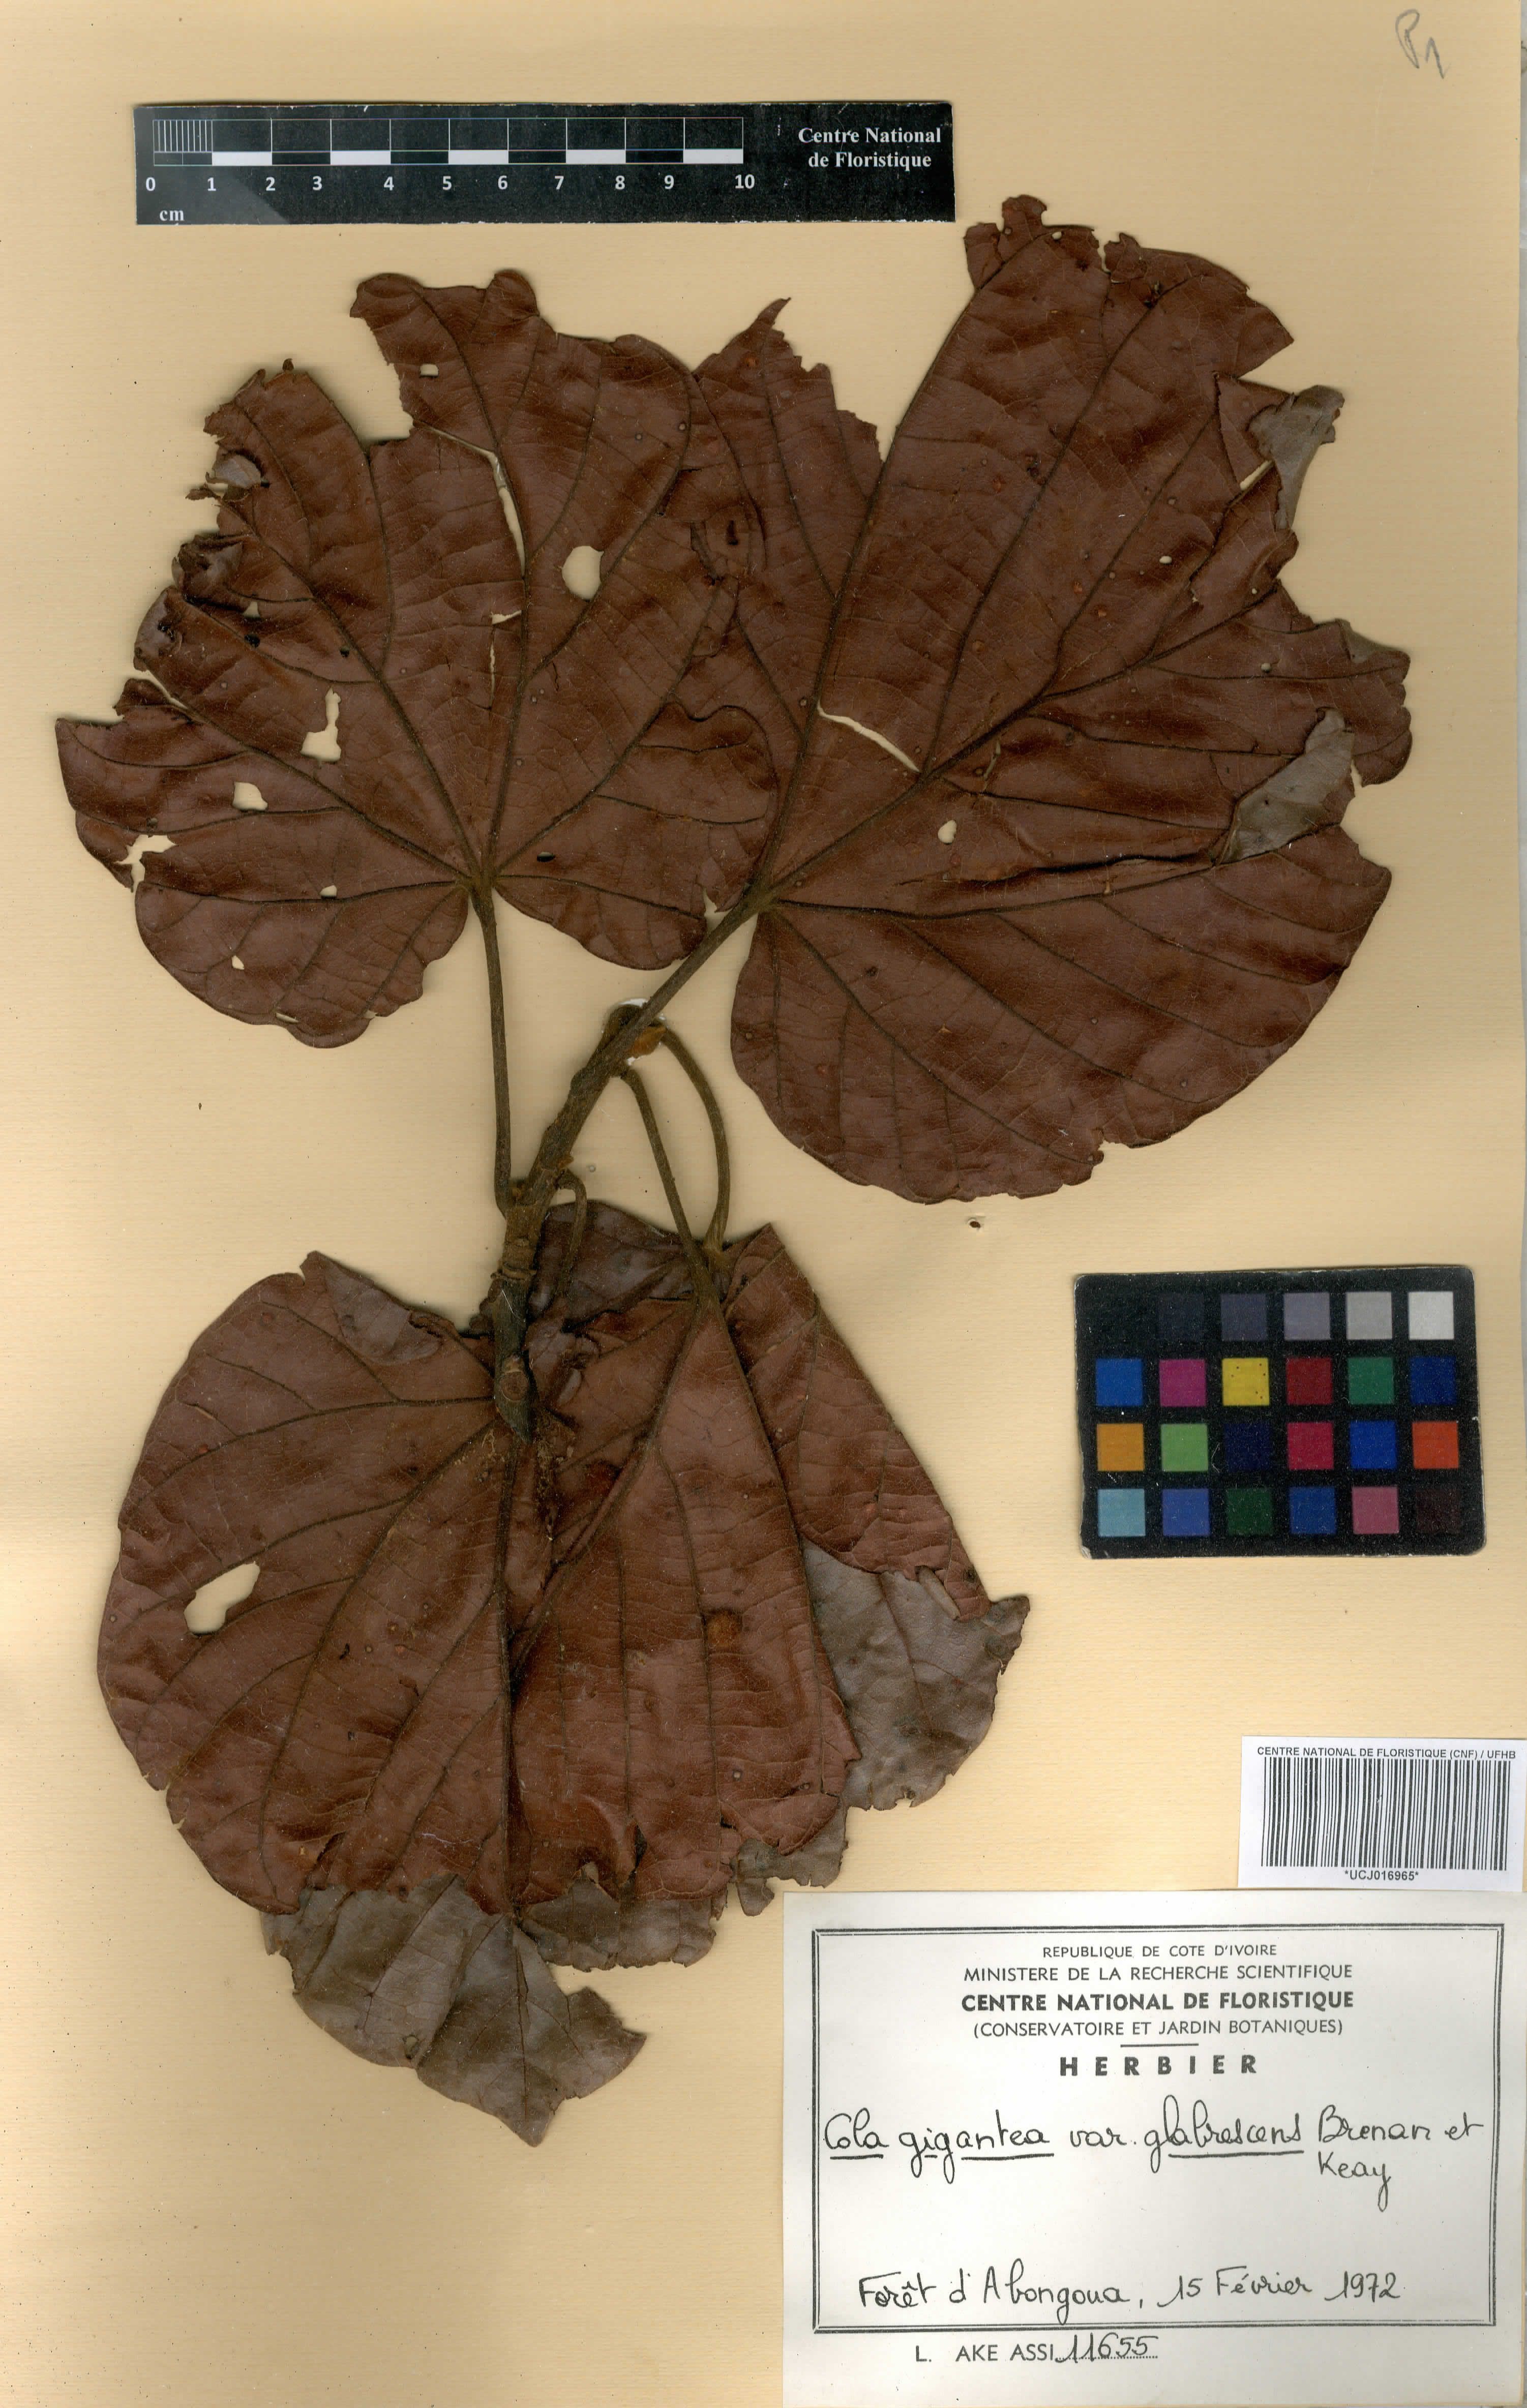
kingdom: Plantae
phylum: Tracheophyta
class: Magnoliopsida
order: Malvales
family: Malvaceae
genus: Cola
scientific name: Cola gigantea
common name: Giant cola
